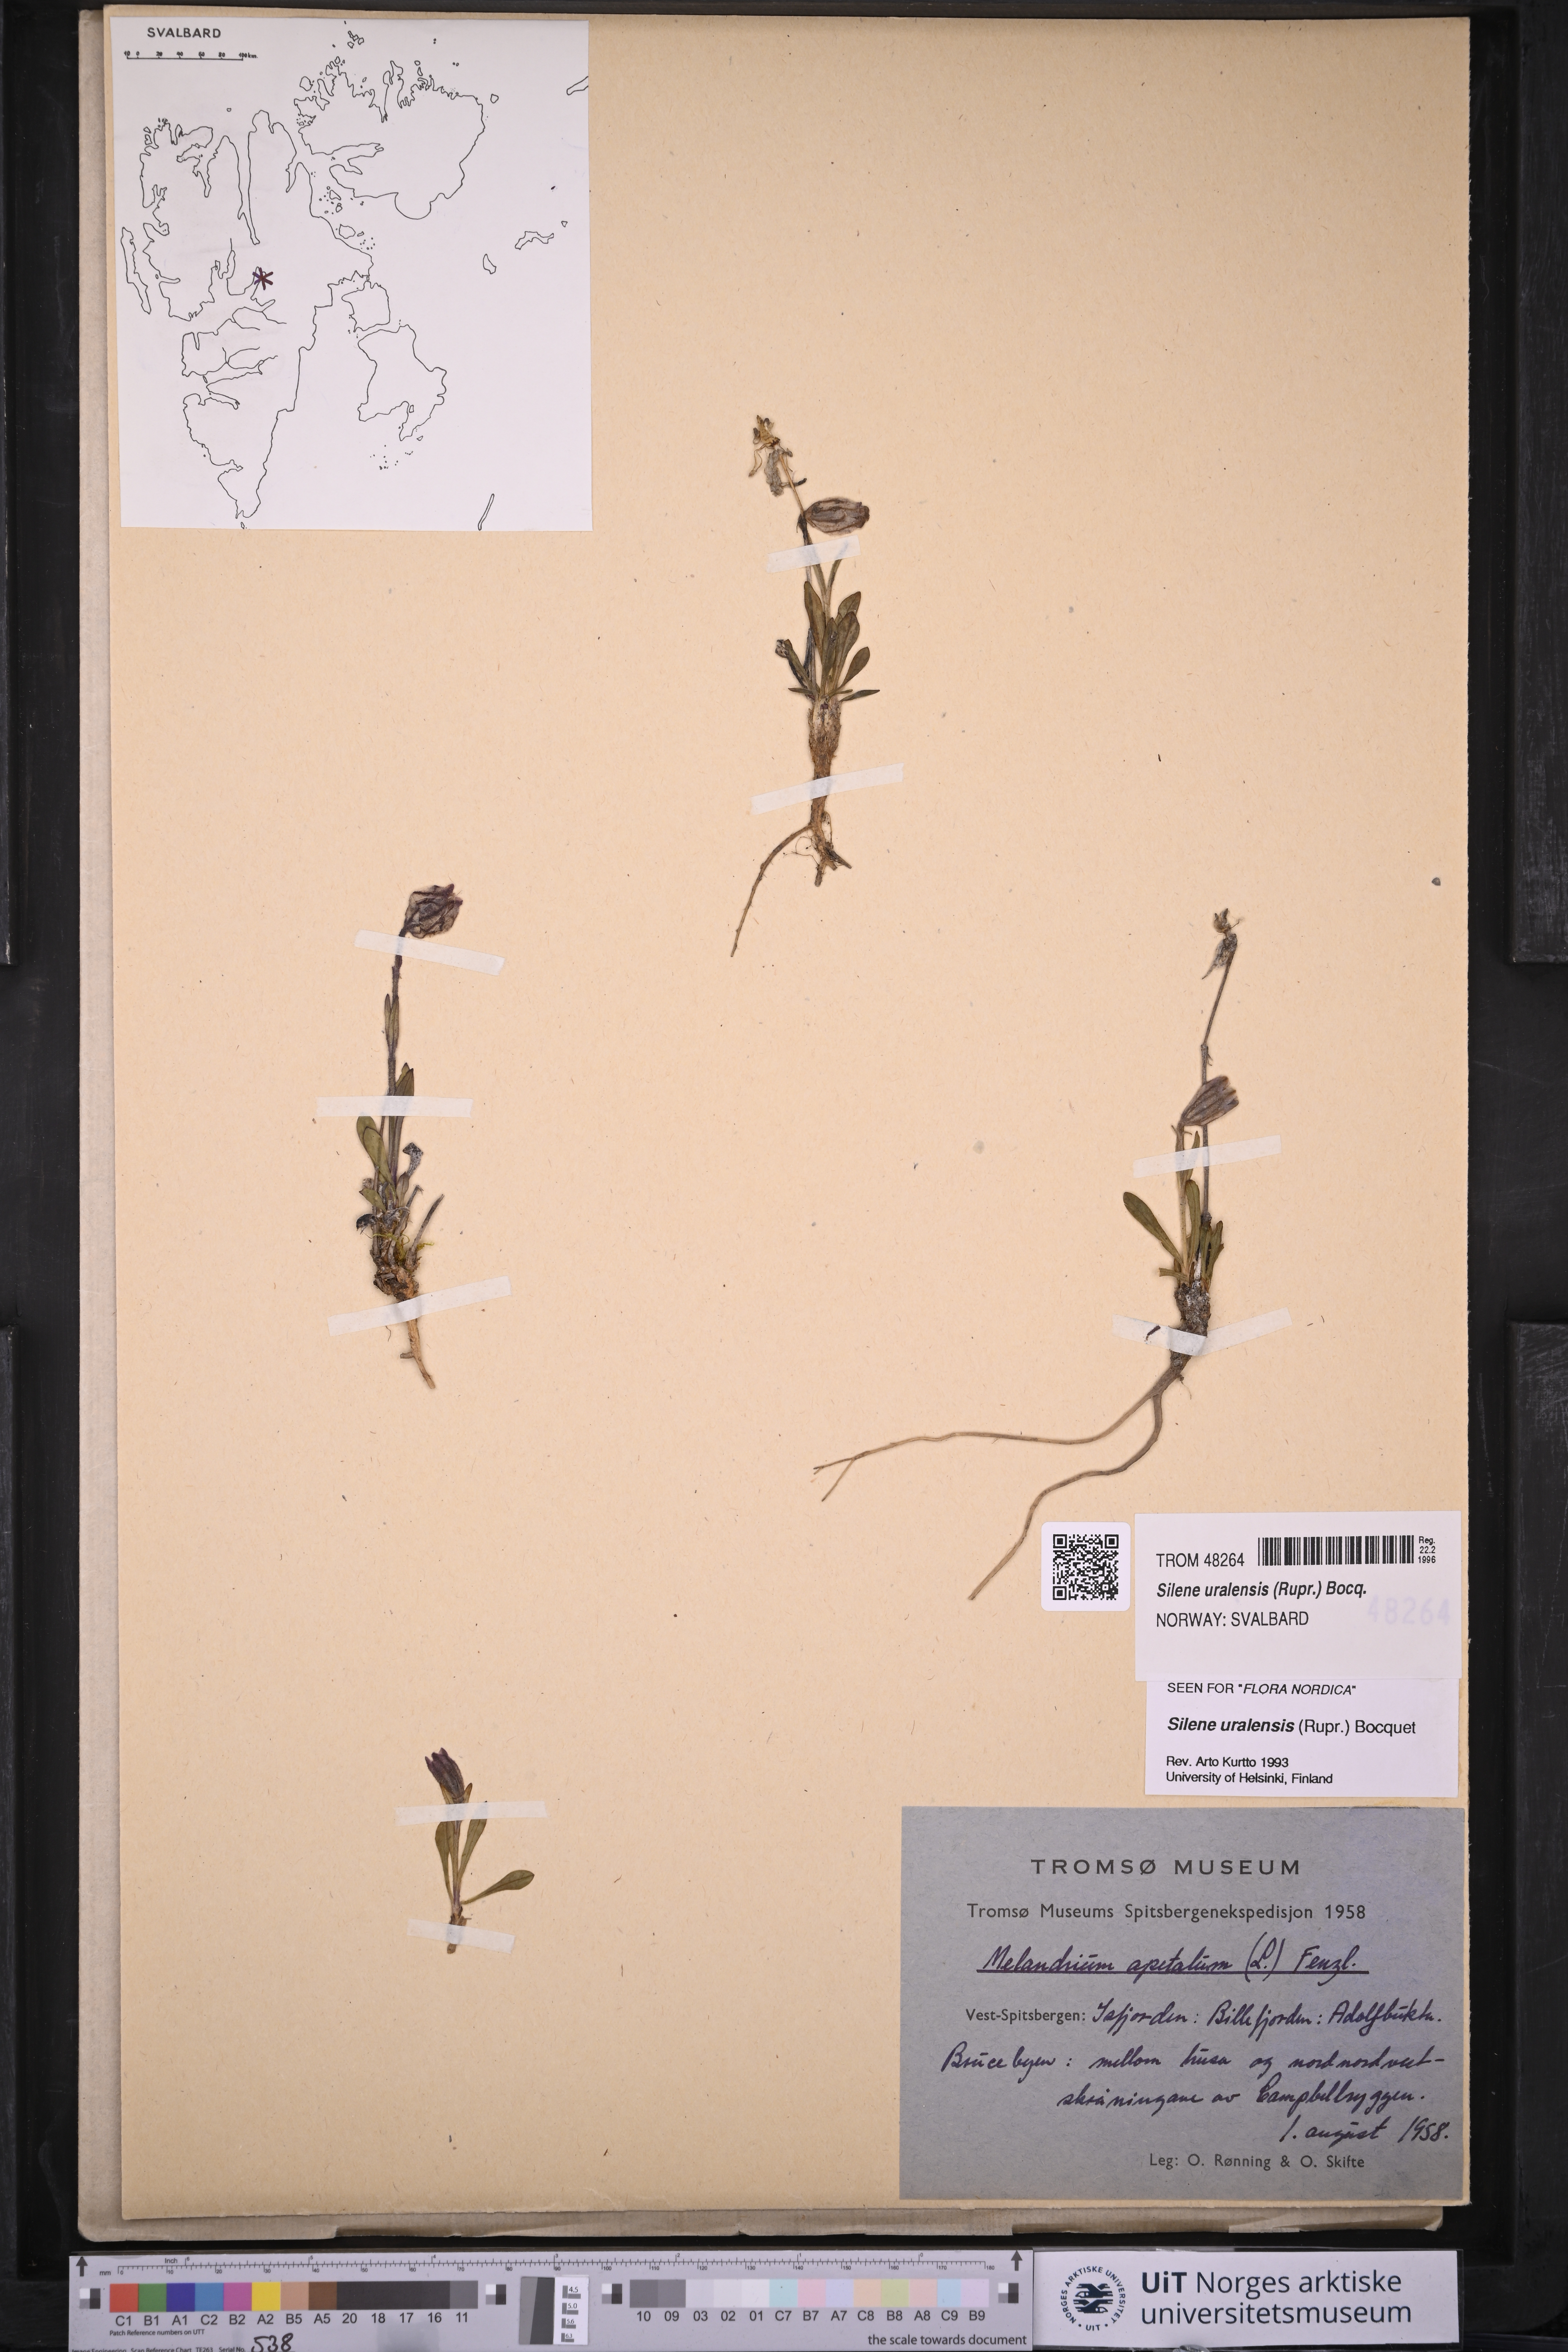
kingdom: Plantae
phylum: Tracheophyta
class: Magnoliopsida
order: Caryophyllales
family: Caryophyllaceae
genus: Silene
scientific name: Silene uralensis
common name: Nodding campion
